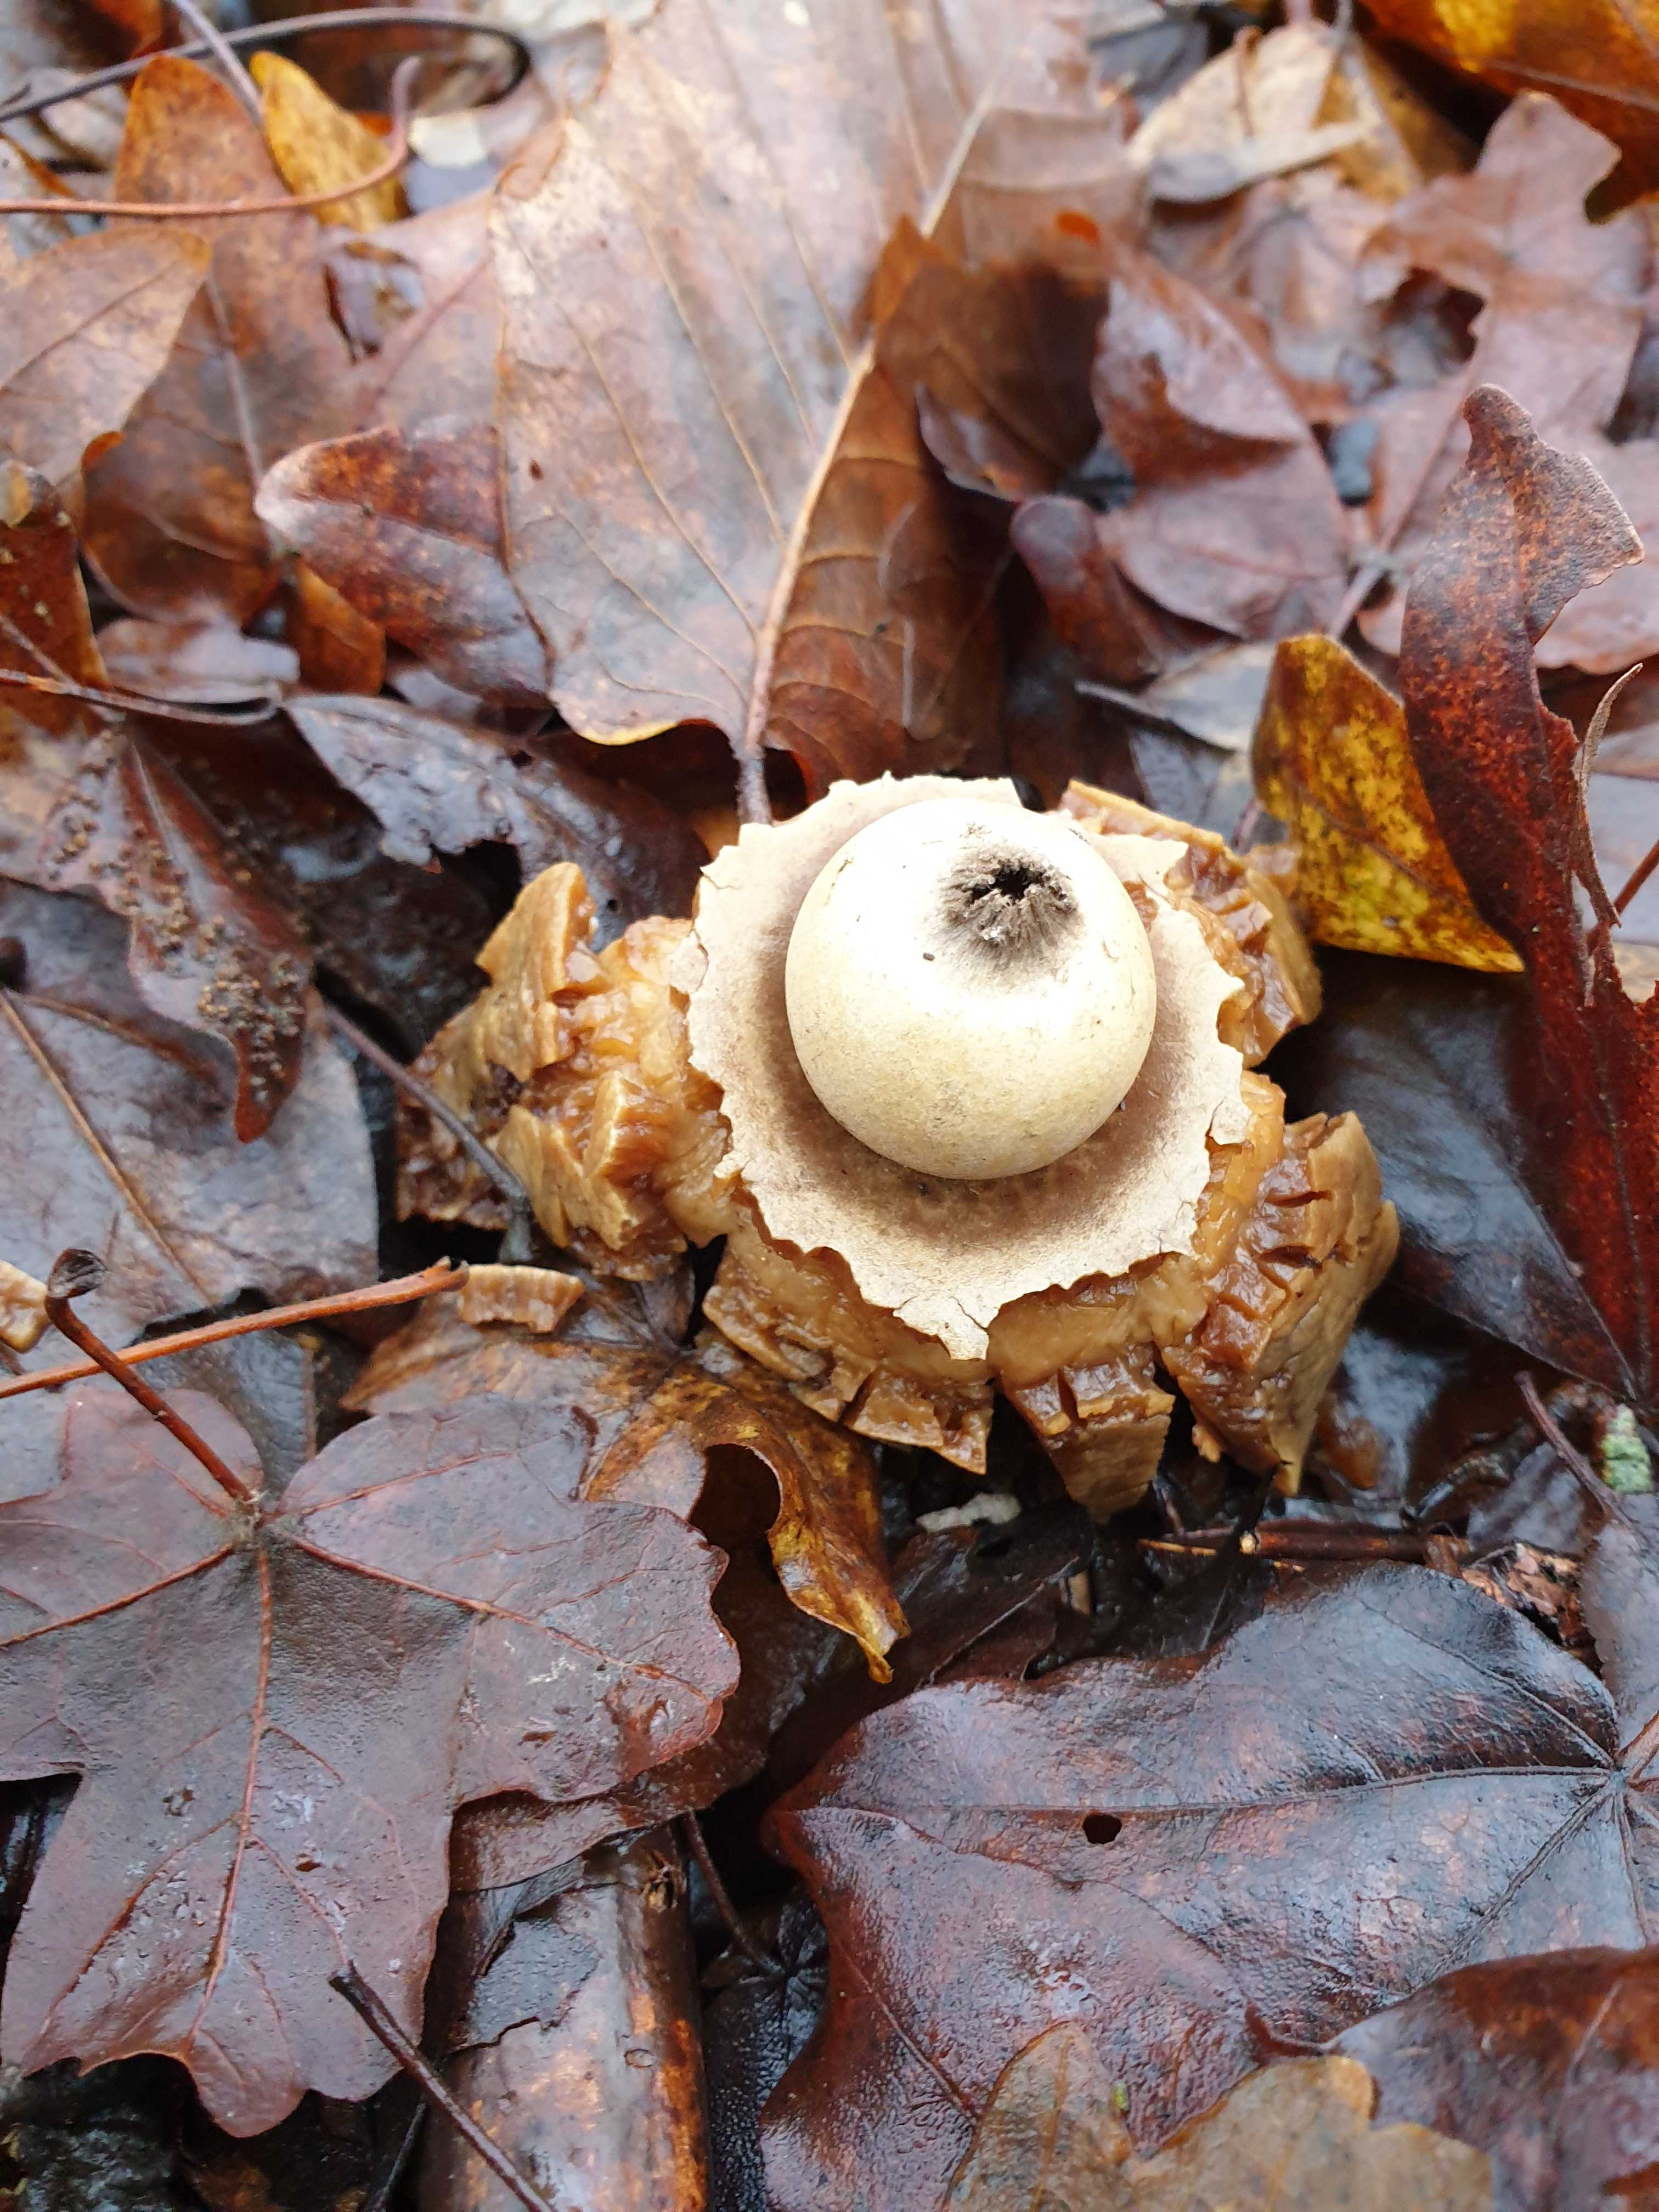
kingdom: Fungi
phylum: Basidiomycota
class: Agaricomycetes
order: Geastrales
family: Geastraceae
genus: Geastrum
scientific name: Geastrum michelianum
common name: kødet stjernebold
